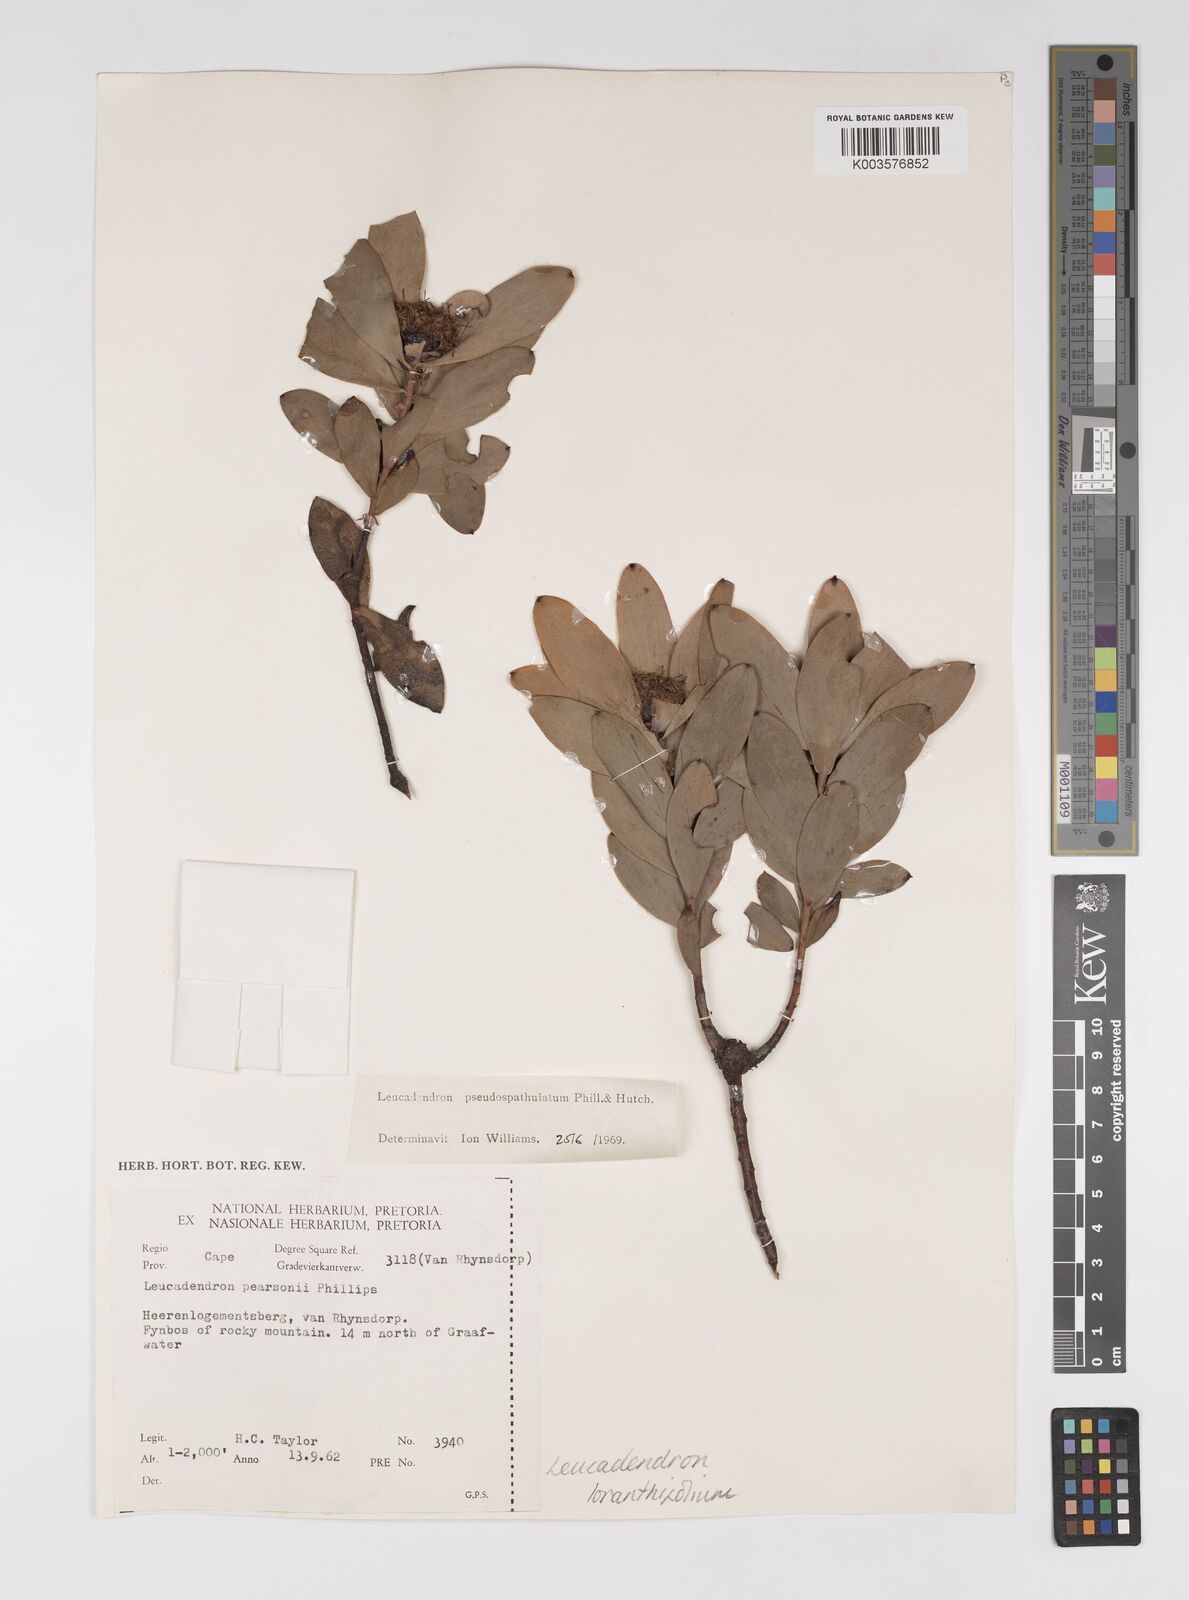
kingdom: Plantae
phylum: Tracheophyta
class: Magnoliopsida
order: Proteales
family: Proteaceae
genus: Leucadendron
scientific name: Leucadendron loranthifolium
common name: Green-flower sunbush
